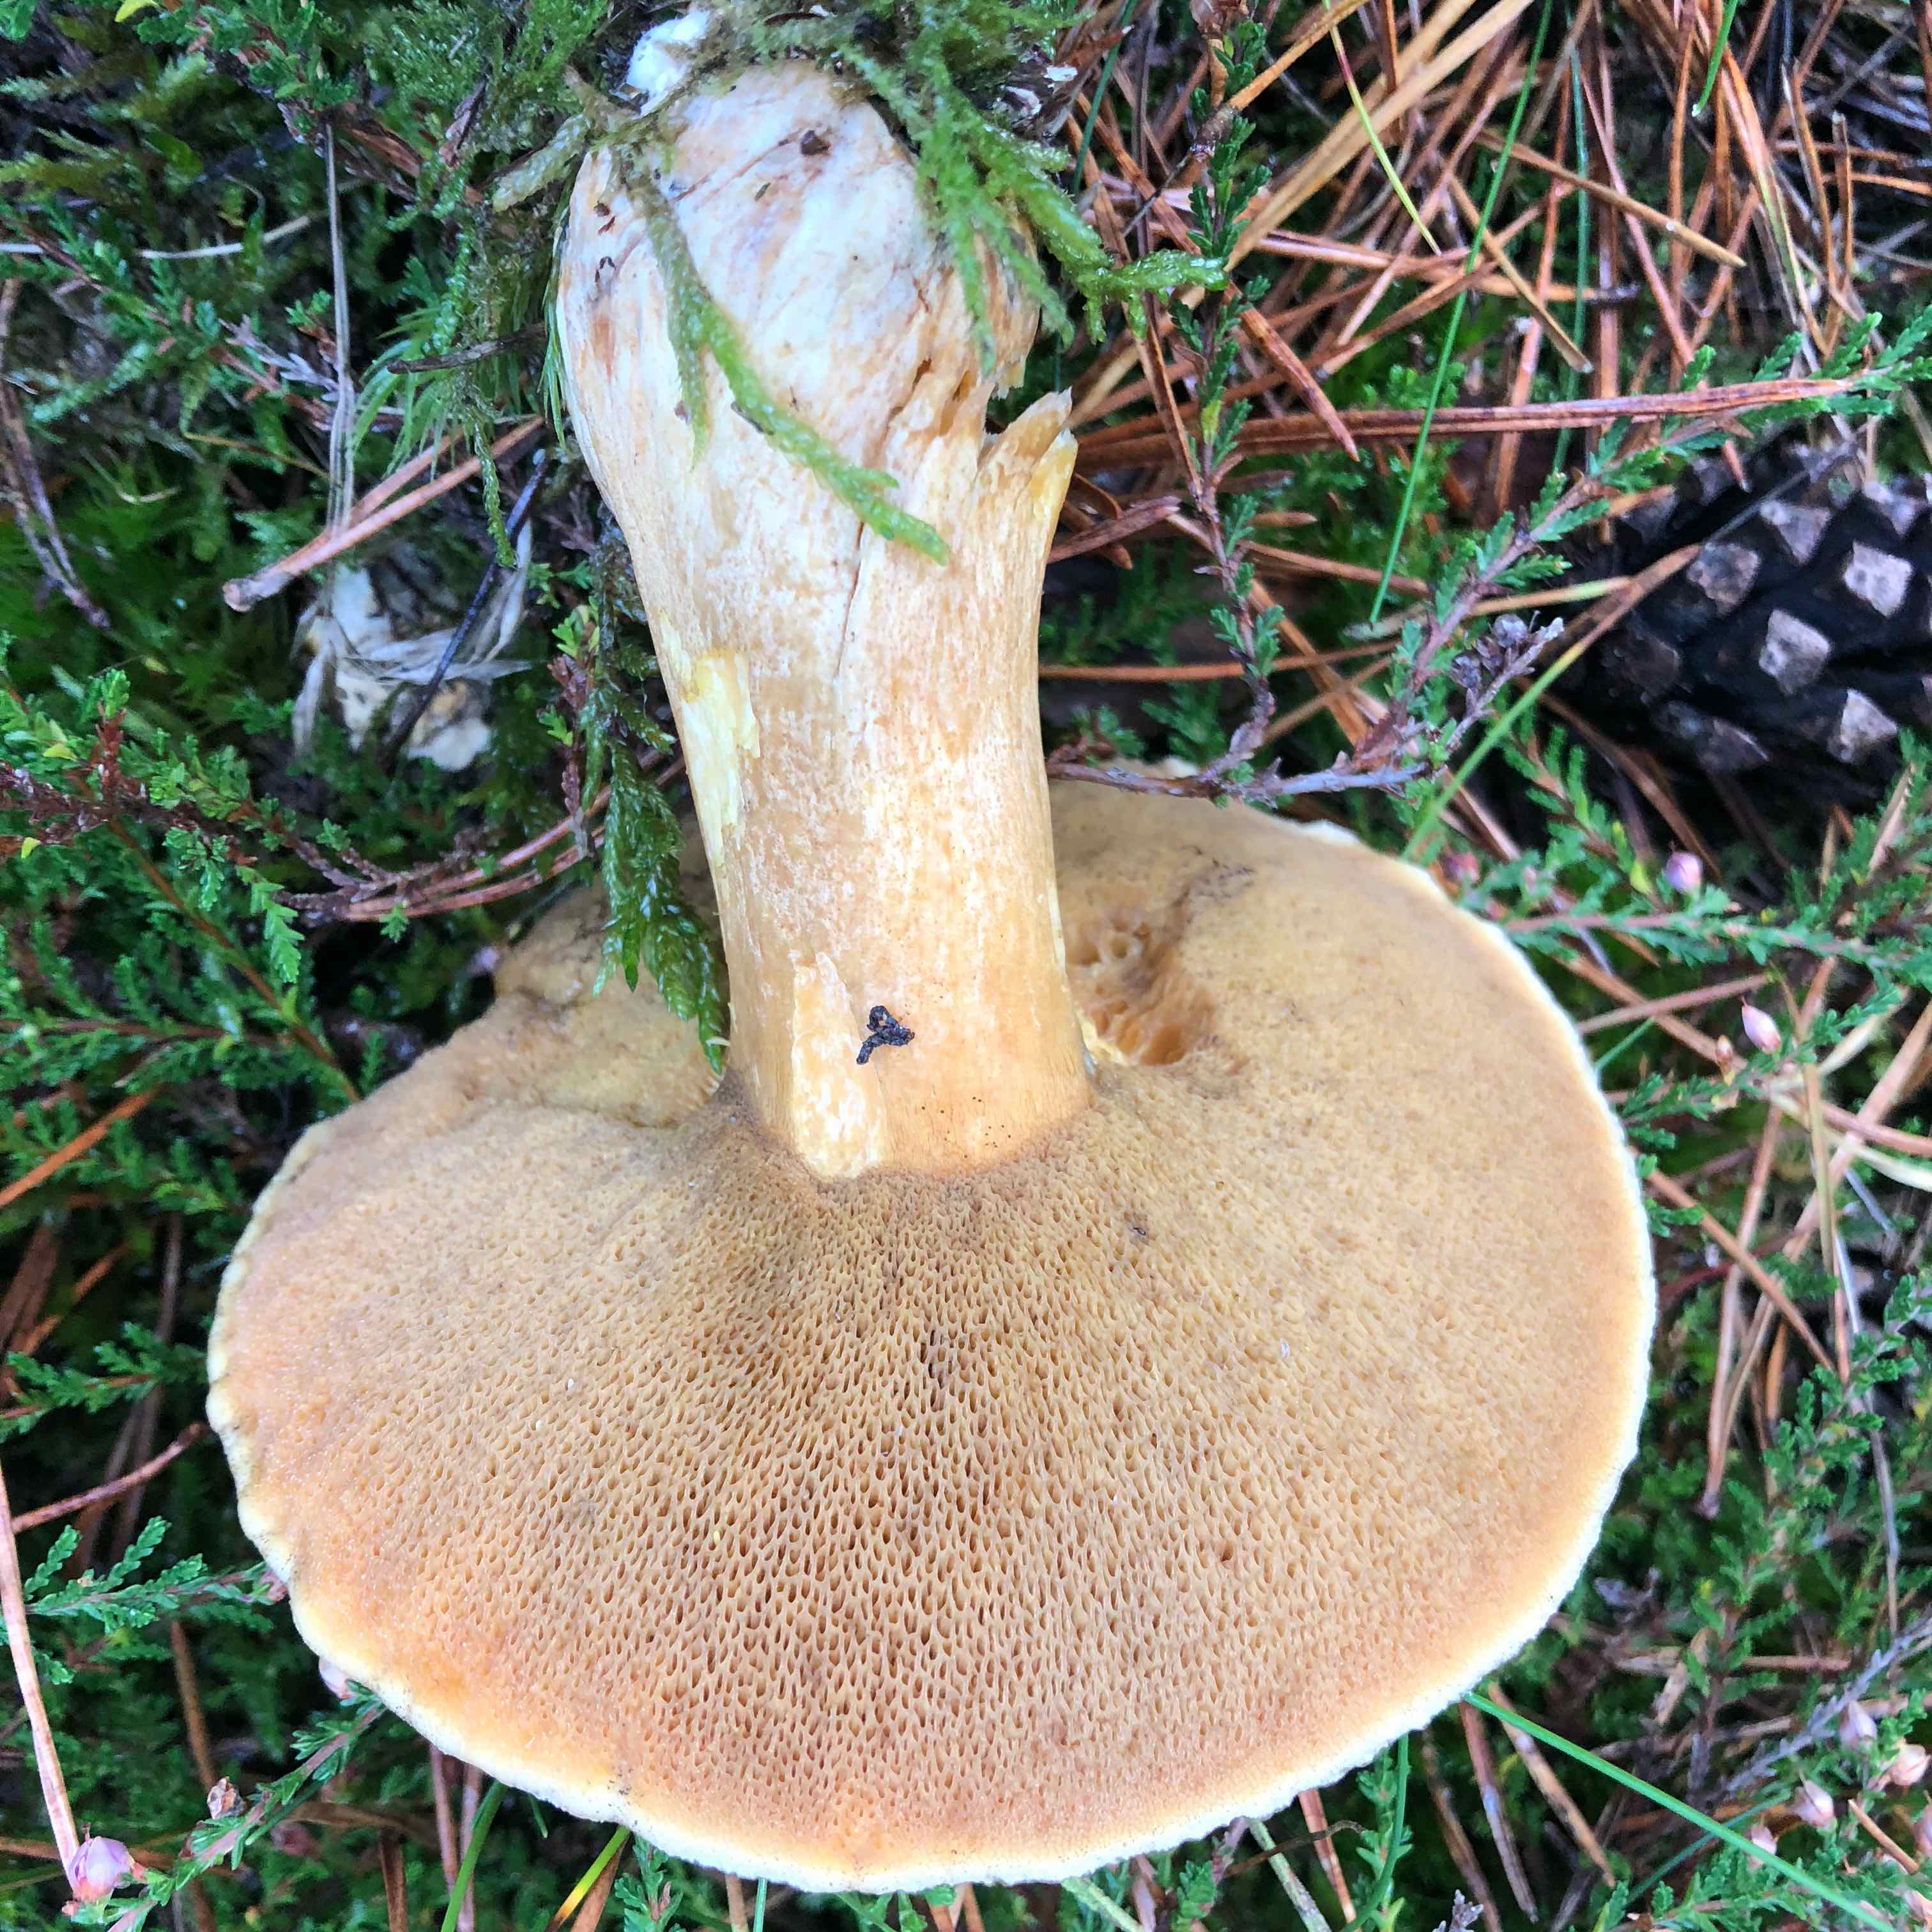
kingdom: Fungi
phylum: Basidiomycota
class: Agaricomycetes
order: Boletales
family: Suillaceae
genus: Suillus
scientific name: Suillus variegatus
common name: broget slimrørhat
